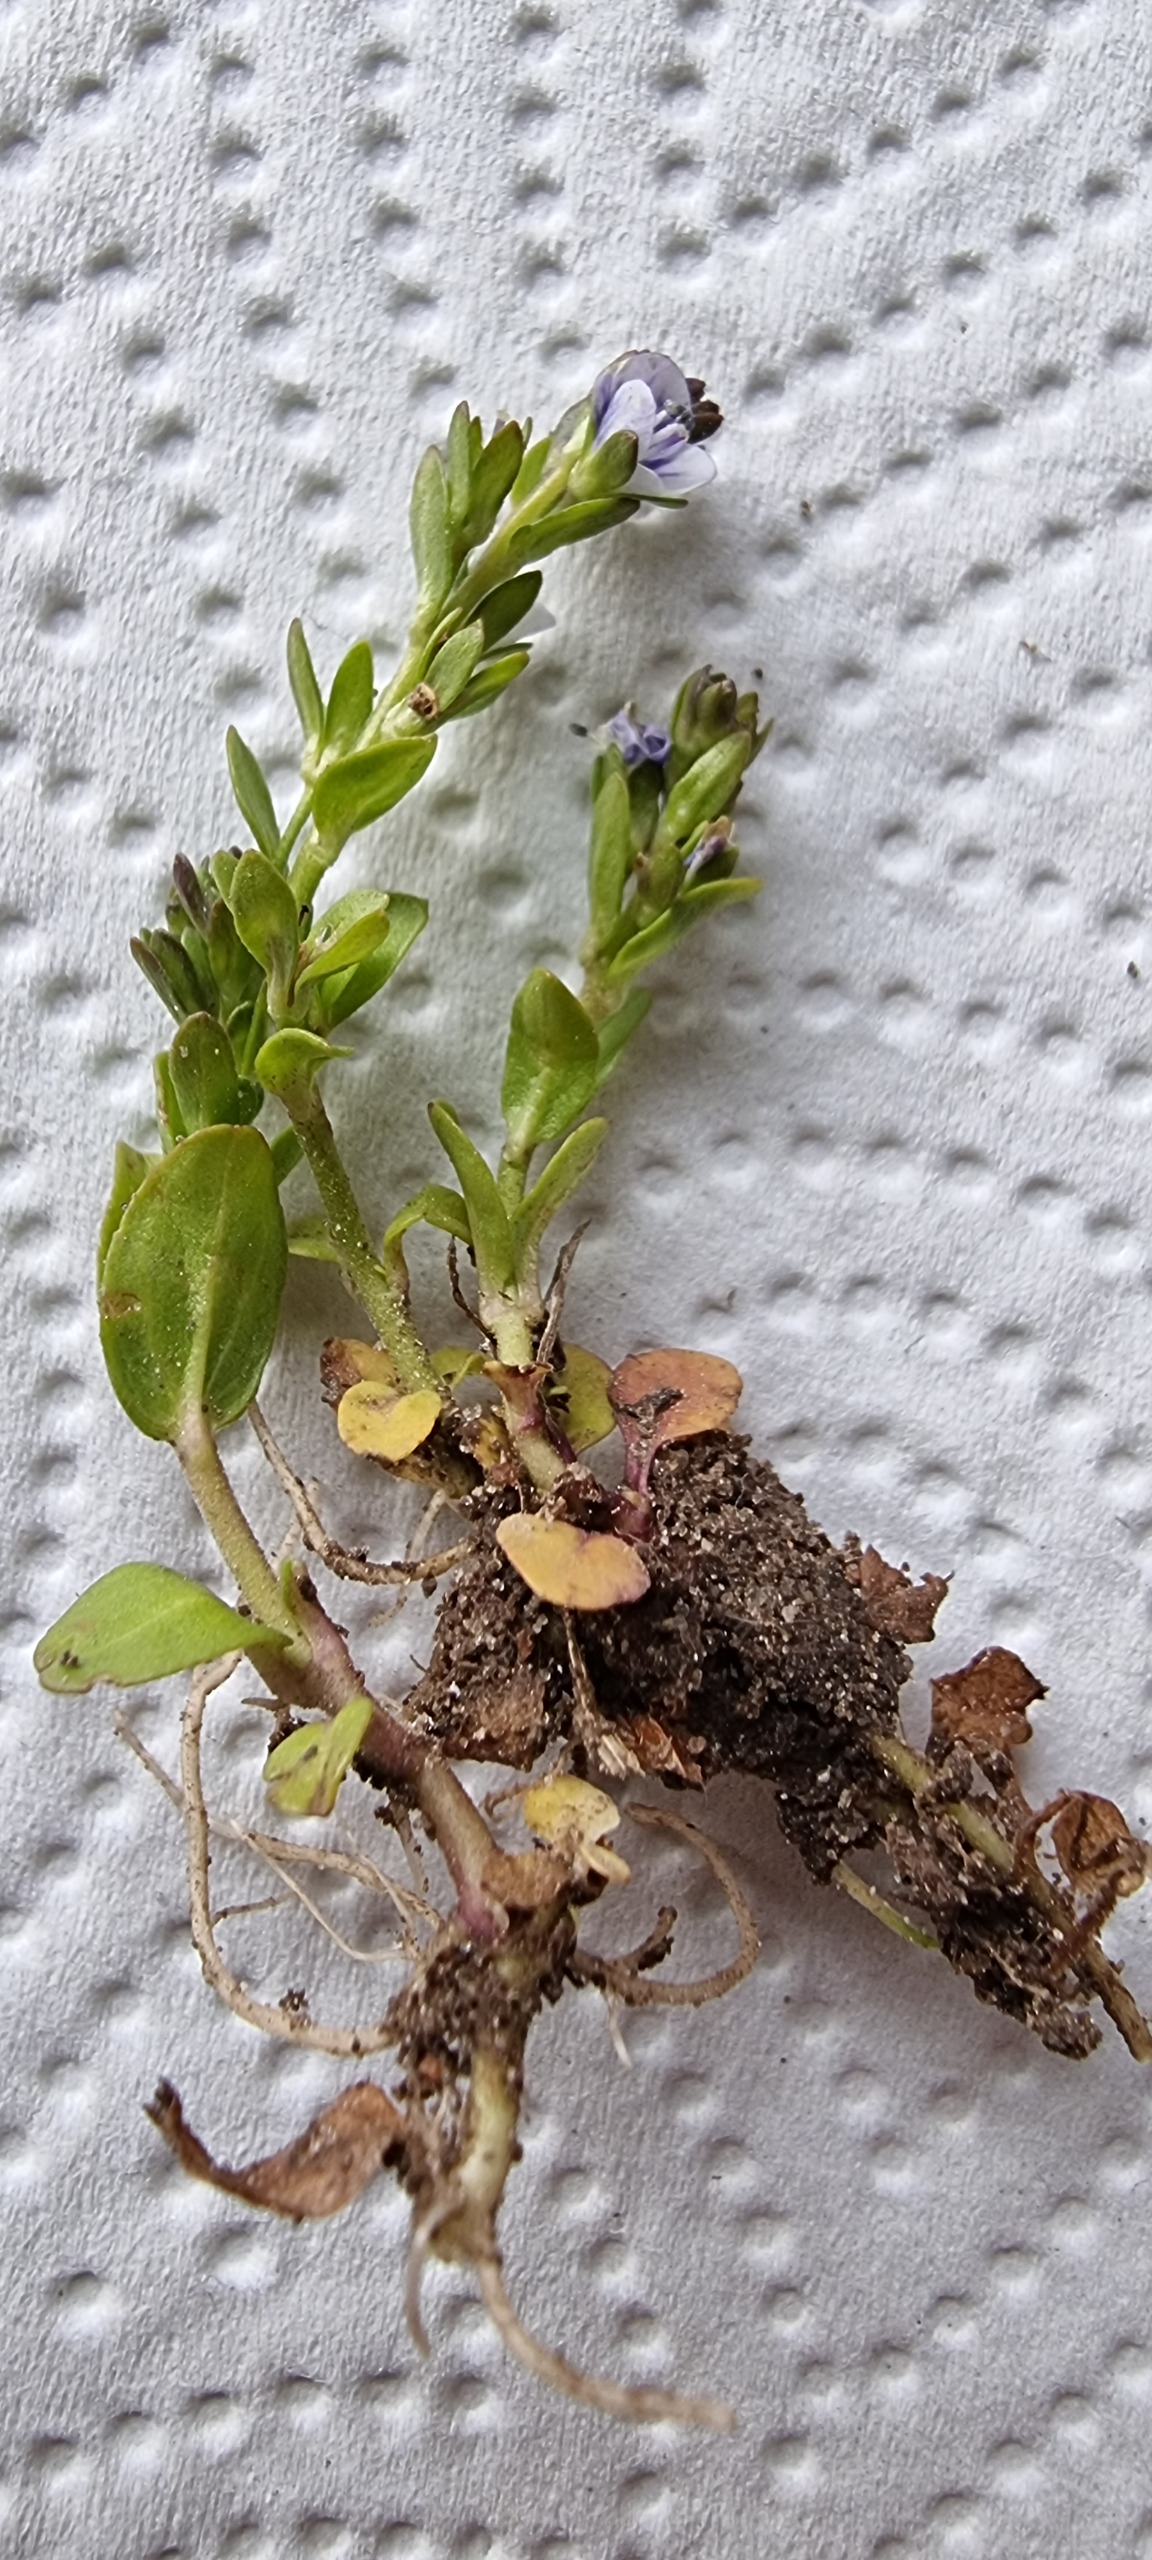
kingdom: Plantae
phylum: Tracheophyta
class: Magnoliopsida
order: Lamiales
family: Plantaginaceae
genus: Veronica
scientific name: Veronica serpyllifolia
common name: Glat ærenpris
